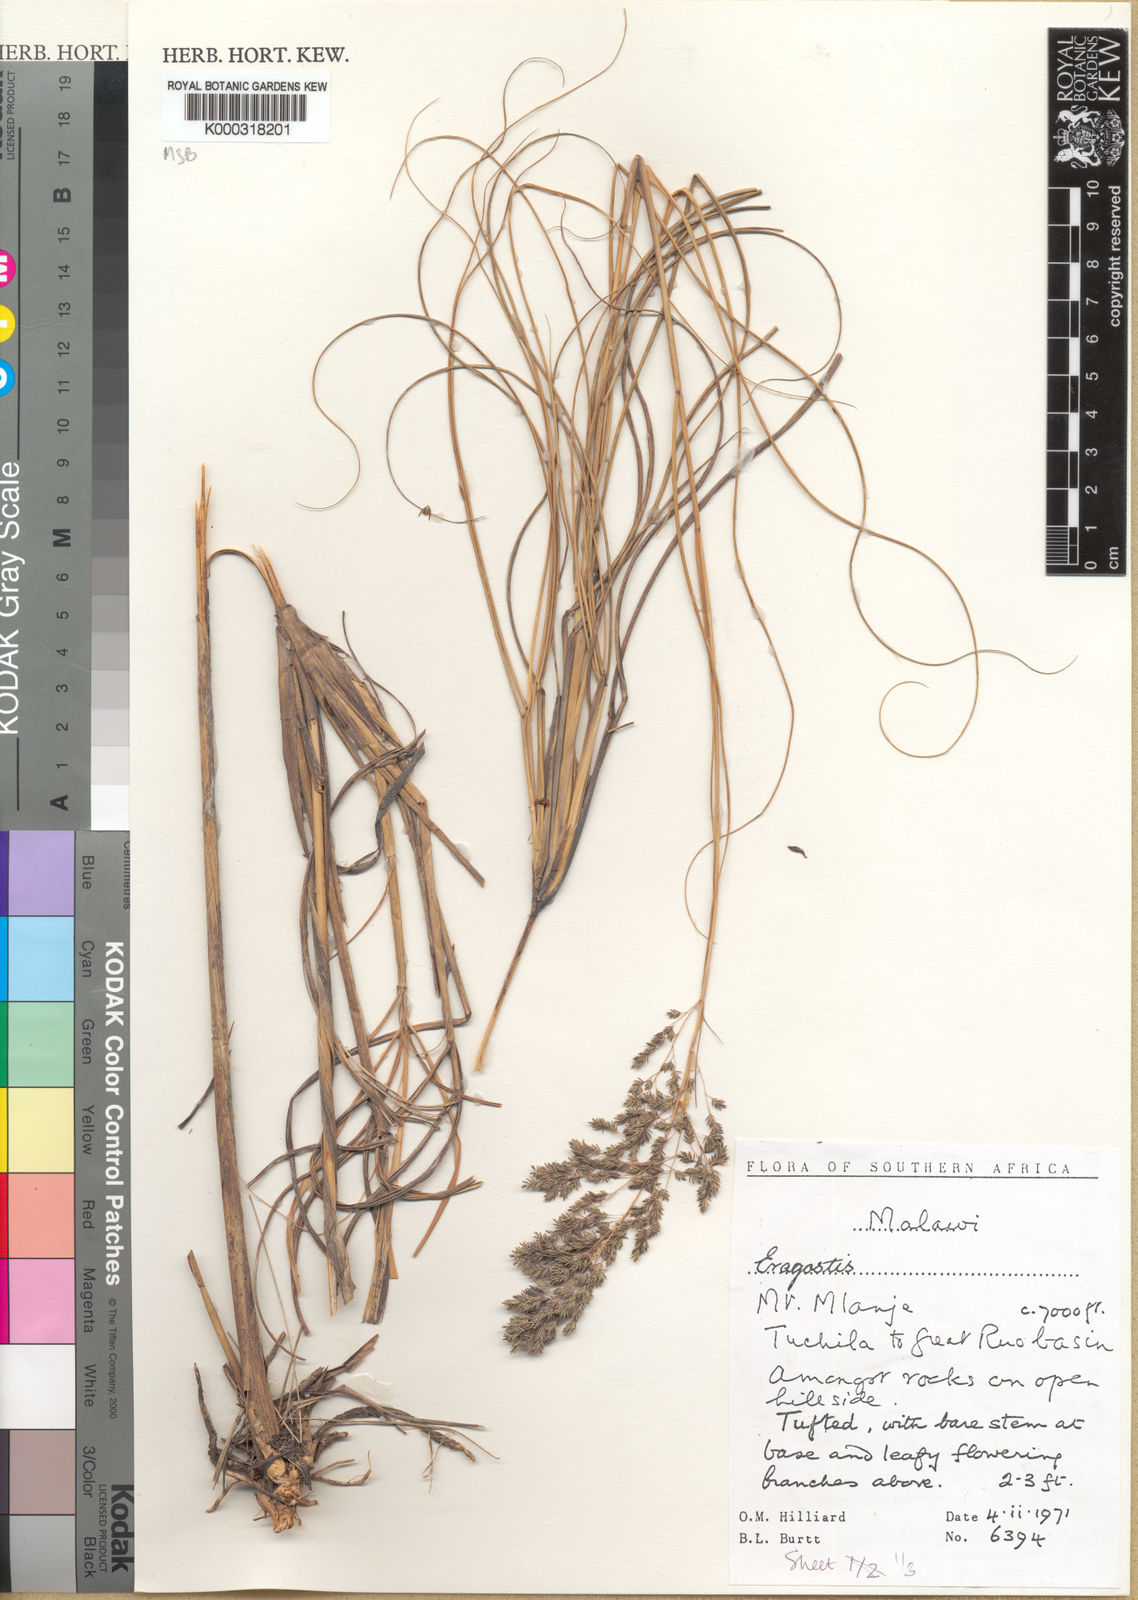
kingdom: Plantae
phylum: Tracheophyta
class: Liliopsida
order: Poales
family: Poaceae
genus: Eragrostis
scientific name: Eragrostis fastigiata
